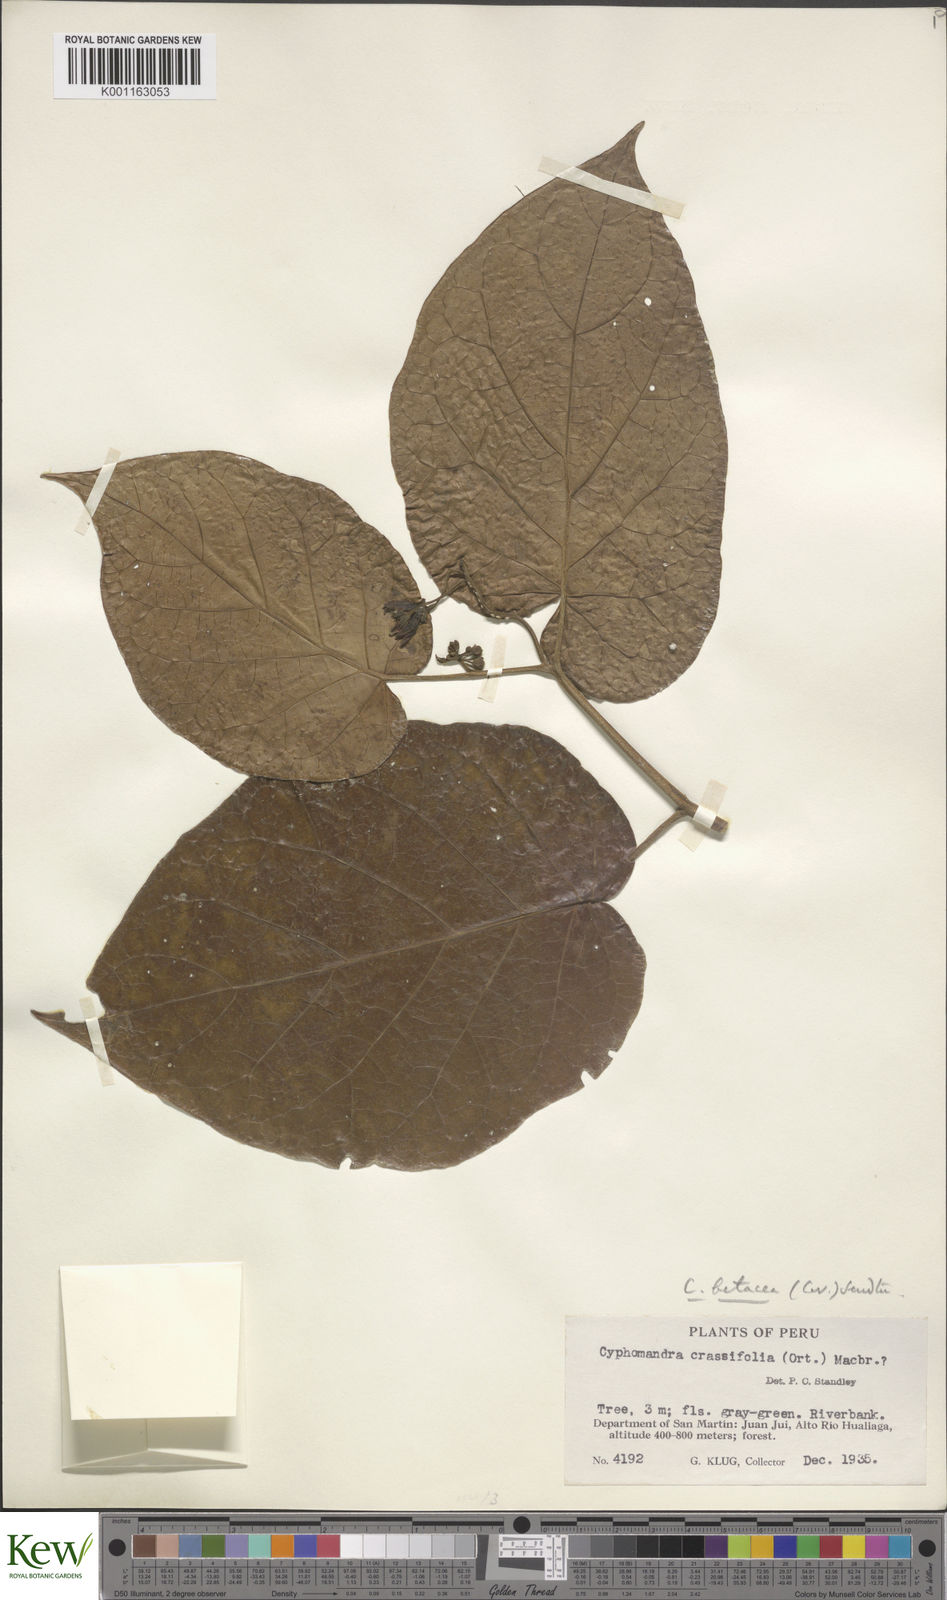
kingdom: Plantae
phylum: Tracheophyta
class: Magnoliopsida
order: Solanales
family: Solanaceae
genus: Solanum
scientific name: Solanum betaceum
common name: Tamarillo
